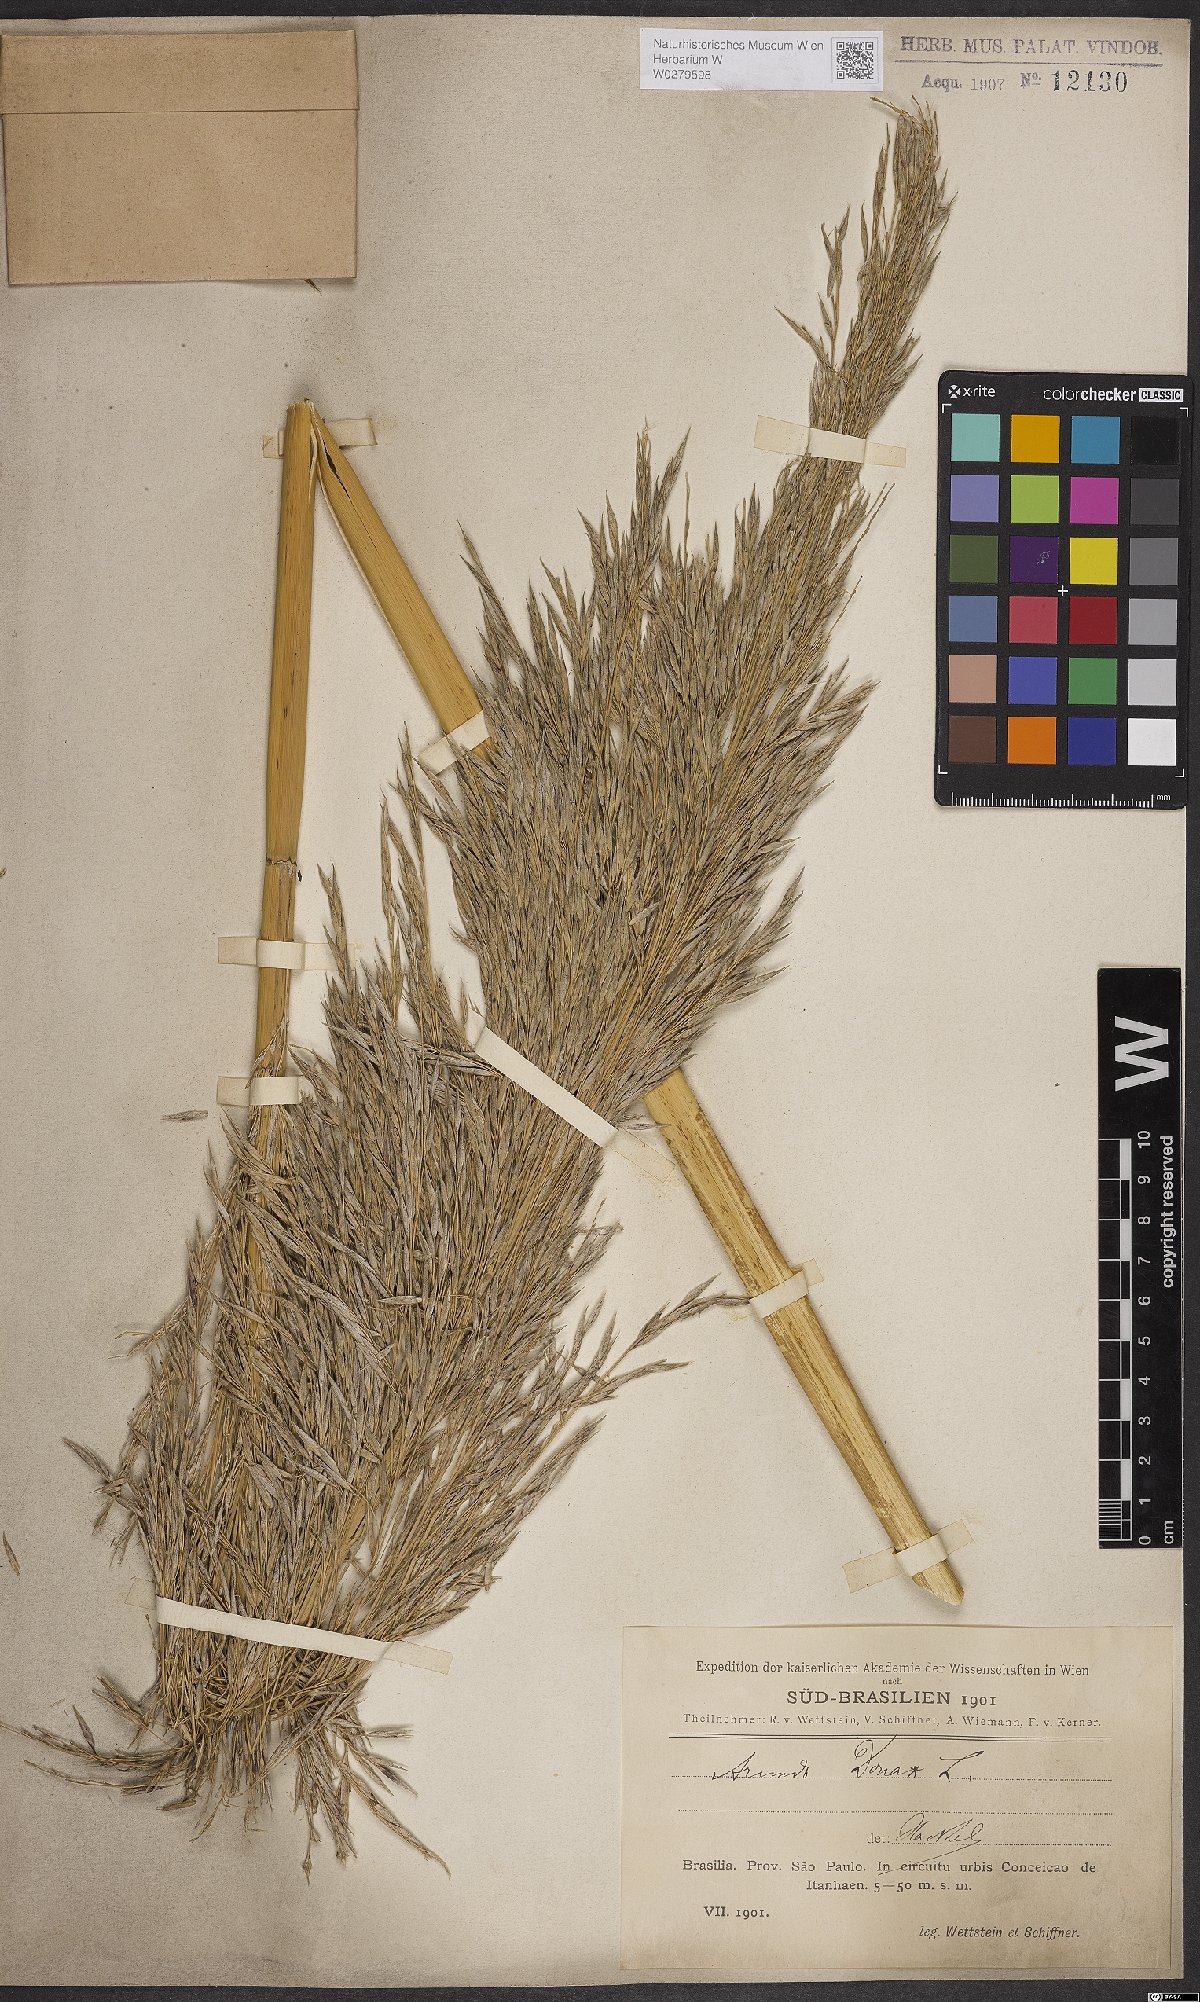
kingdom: Plantae
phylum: Tracheophyta
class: Liliopsida
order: Poales
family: Poaceae
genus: Arundo
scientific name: Arundo donax
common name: Giant reed
